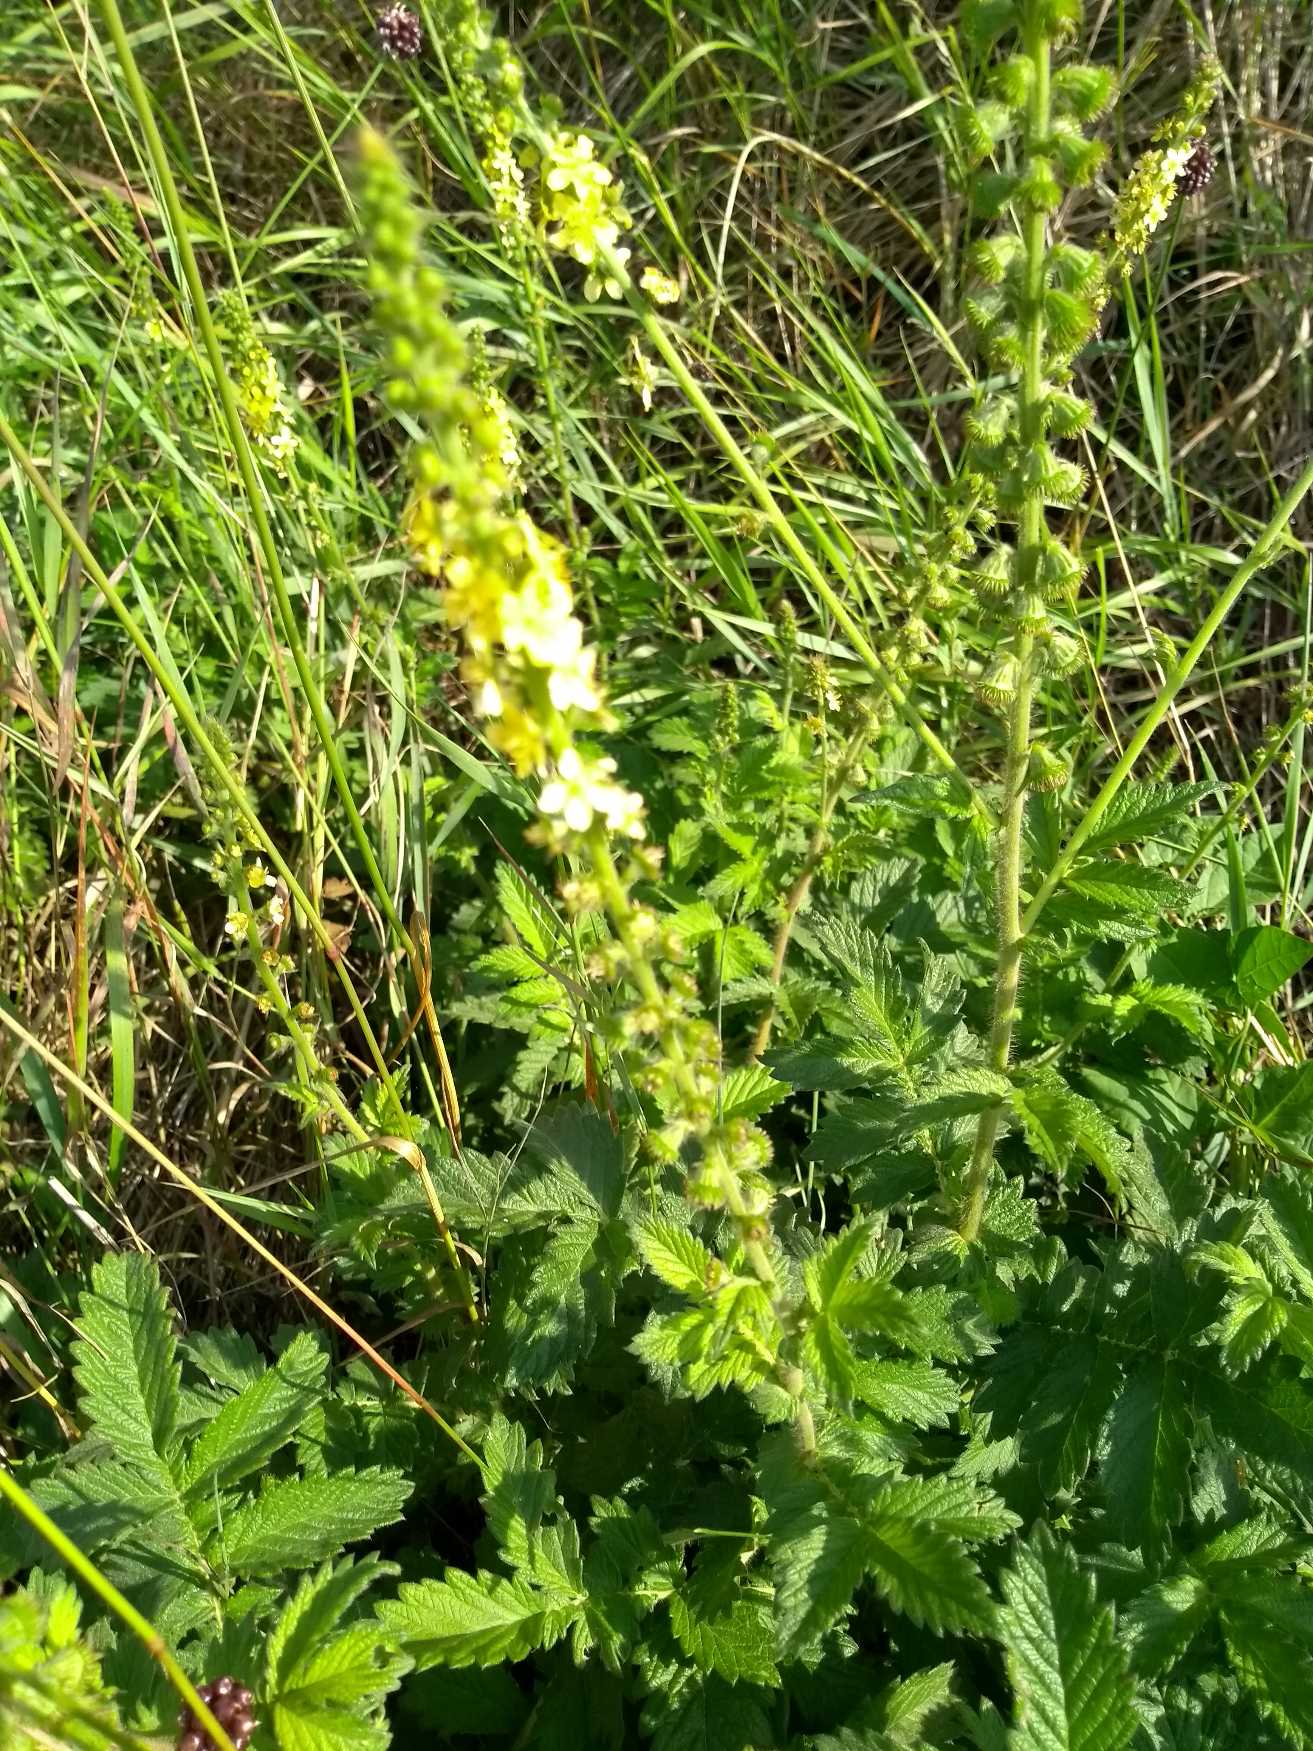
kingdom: Plantae
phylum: Tracheophyta
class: Magnoliopsida
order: Rosales
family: Rosaceae
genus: Agrimonia
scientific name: Agrimonia eupatoria
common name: Almindelig agermåne
